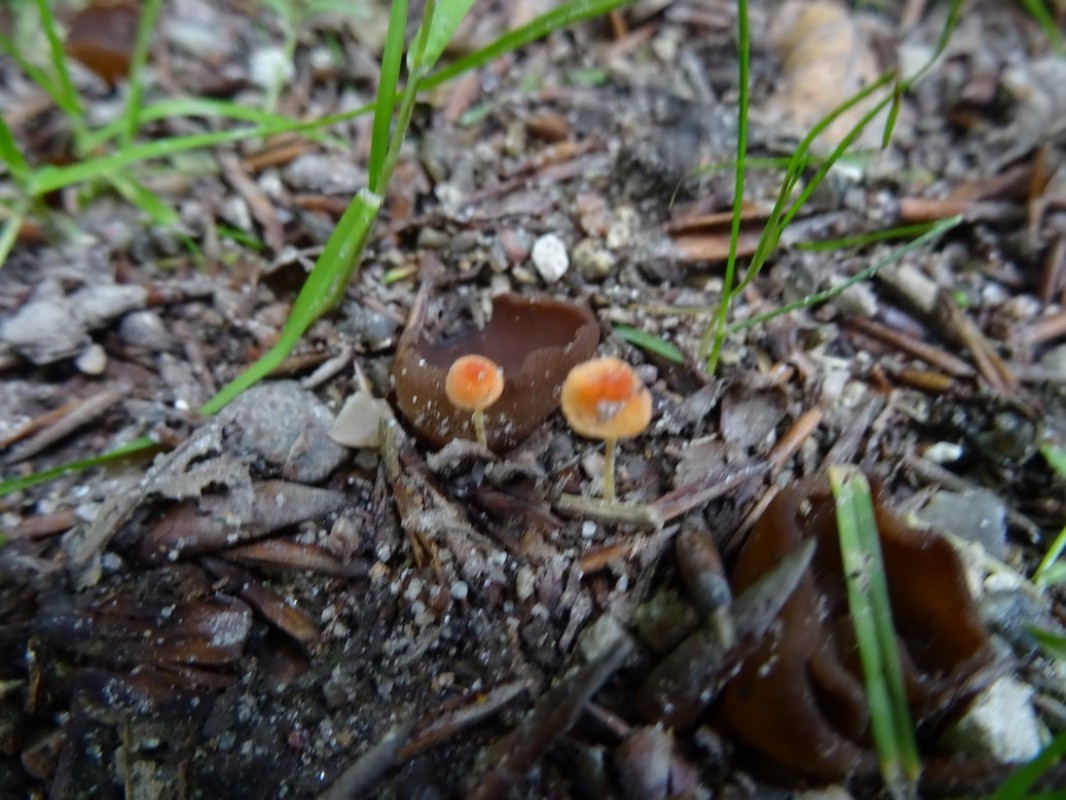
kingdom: Fungi
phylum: Basidiomycota
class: Agaricomycetes
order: Agaricales
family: Mycenaceae
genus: Mycena
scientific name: Mycena acicula
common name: orange huesvamp
